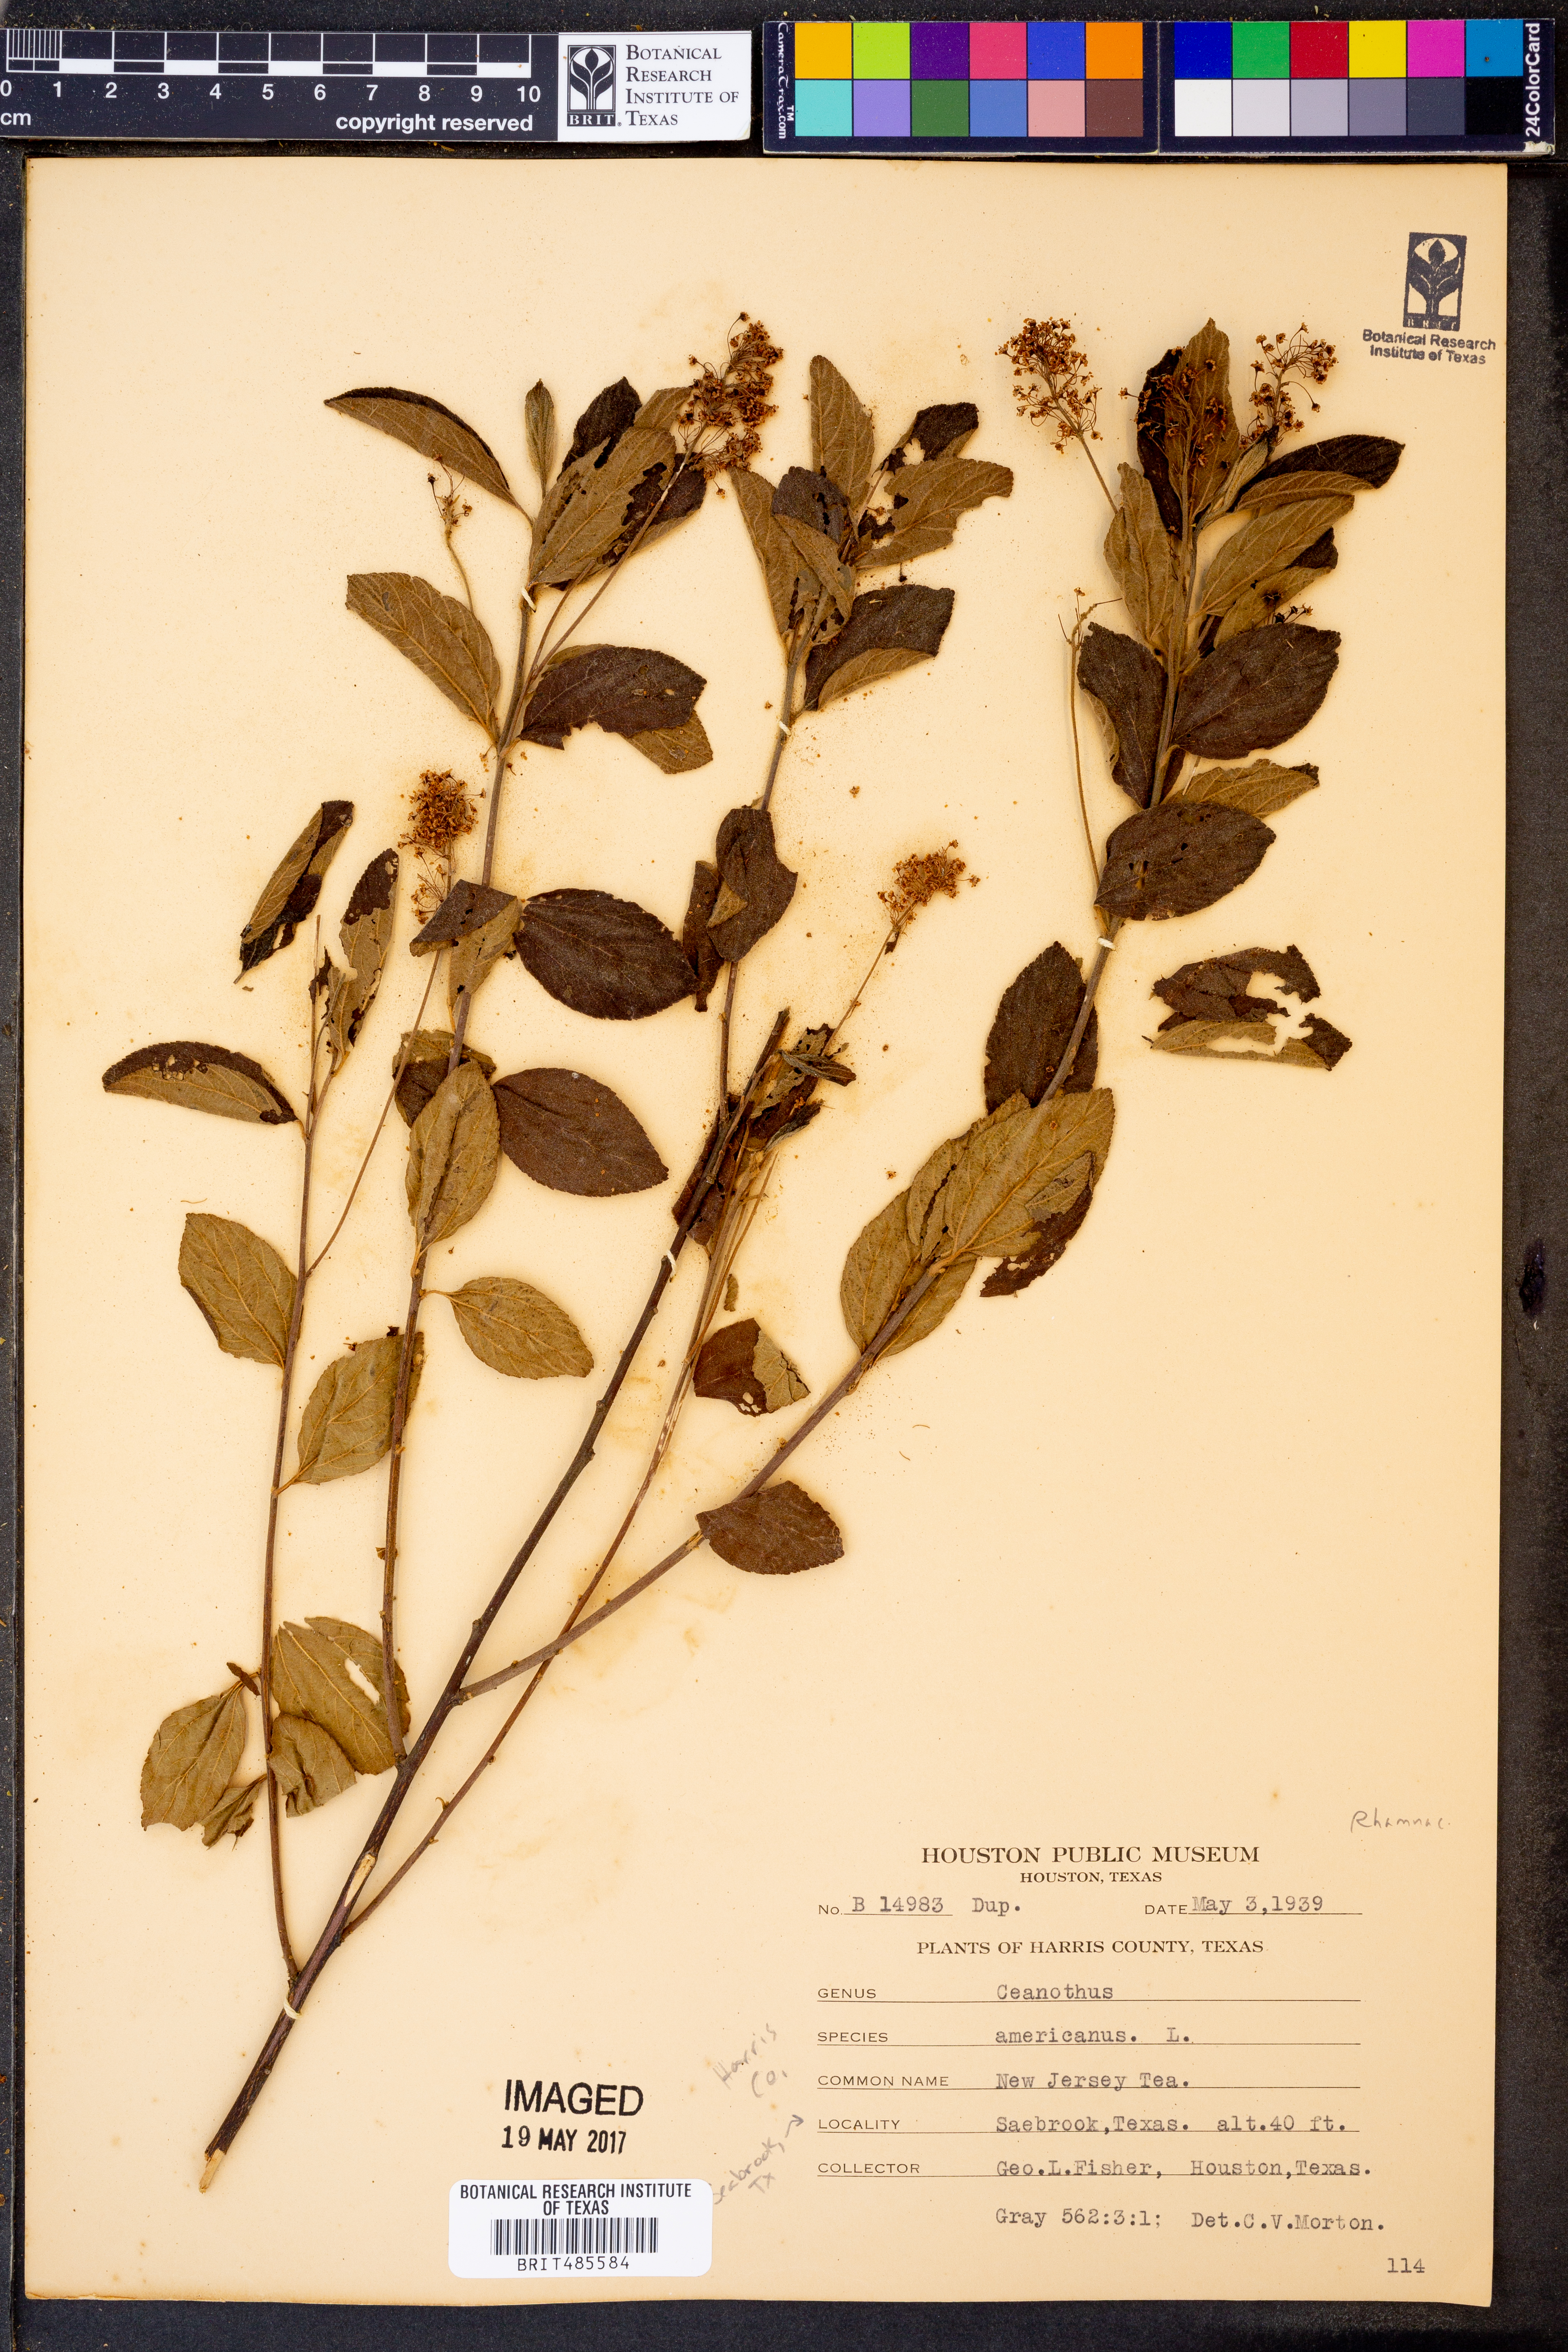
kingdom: Plantae
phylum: Tracheophyta
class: Magnoliopsida
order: Rosales
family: Rhamnaceae
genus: Ceanothus
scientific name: Ceanothus americanus
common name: Redroot
